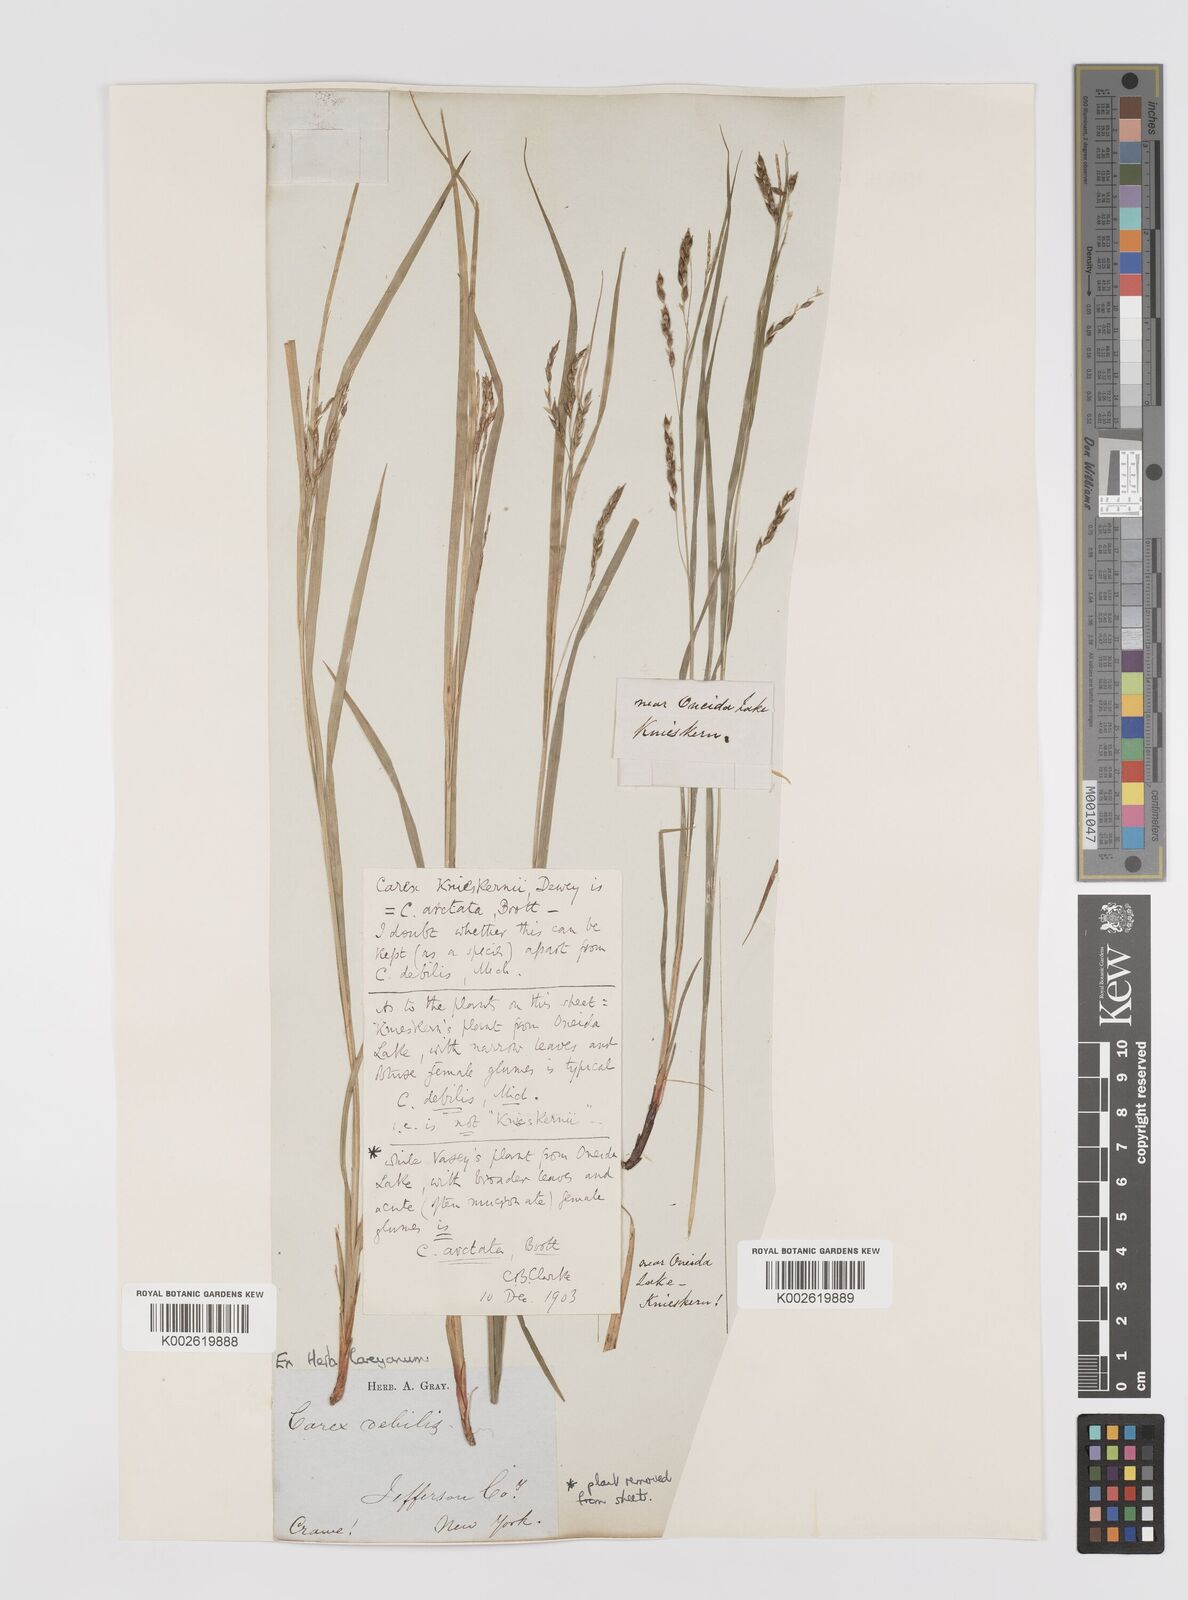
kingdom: Plantae
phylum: Tracheophyta
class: Liliopsida
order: Poales
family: Cyperaceae
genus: Carex
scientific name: Carex arctata
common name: Black sedge
